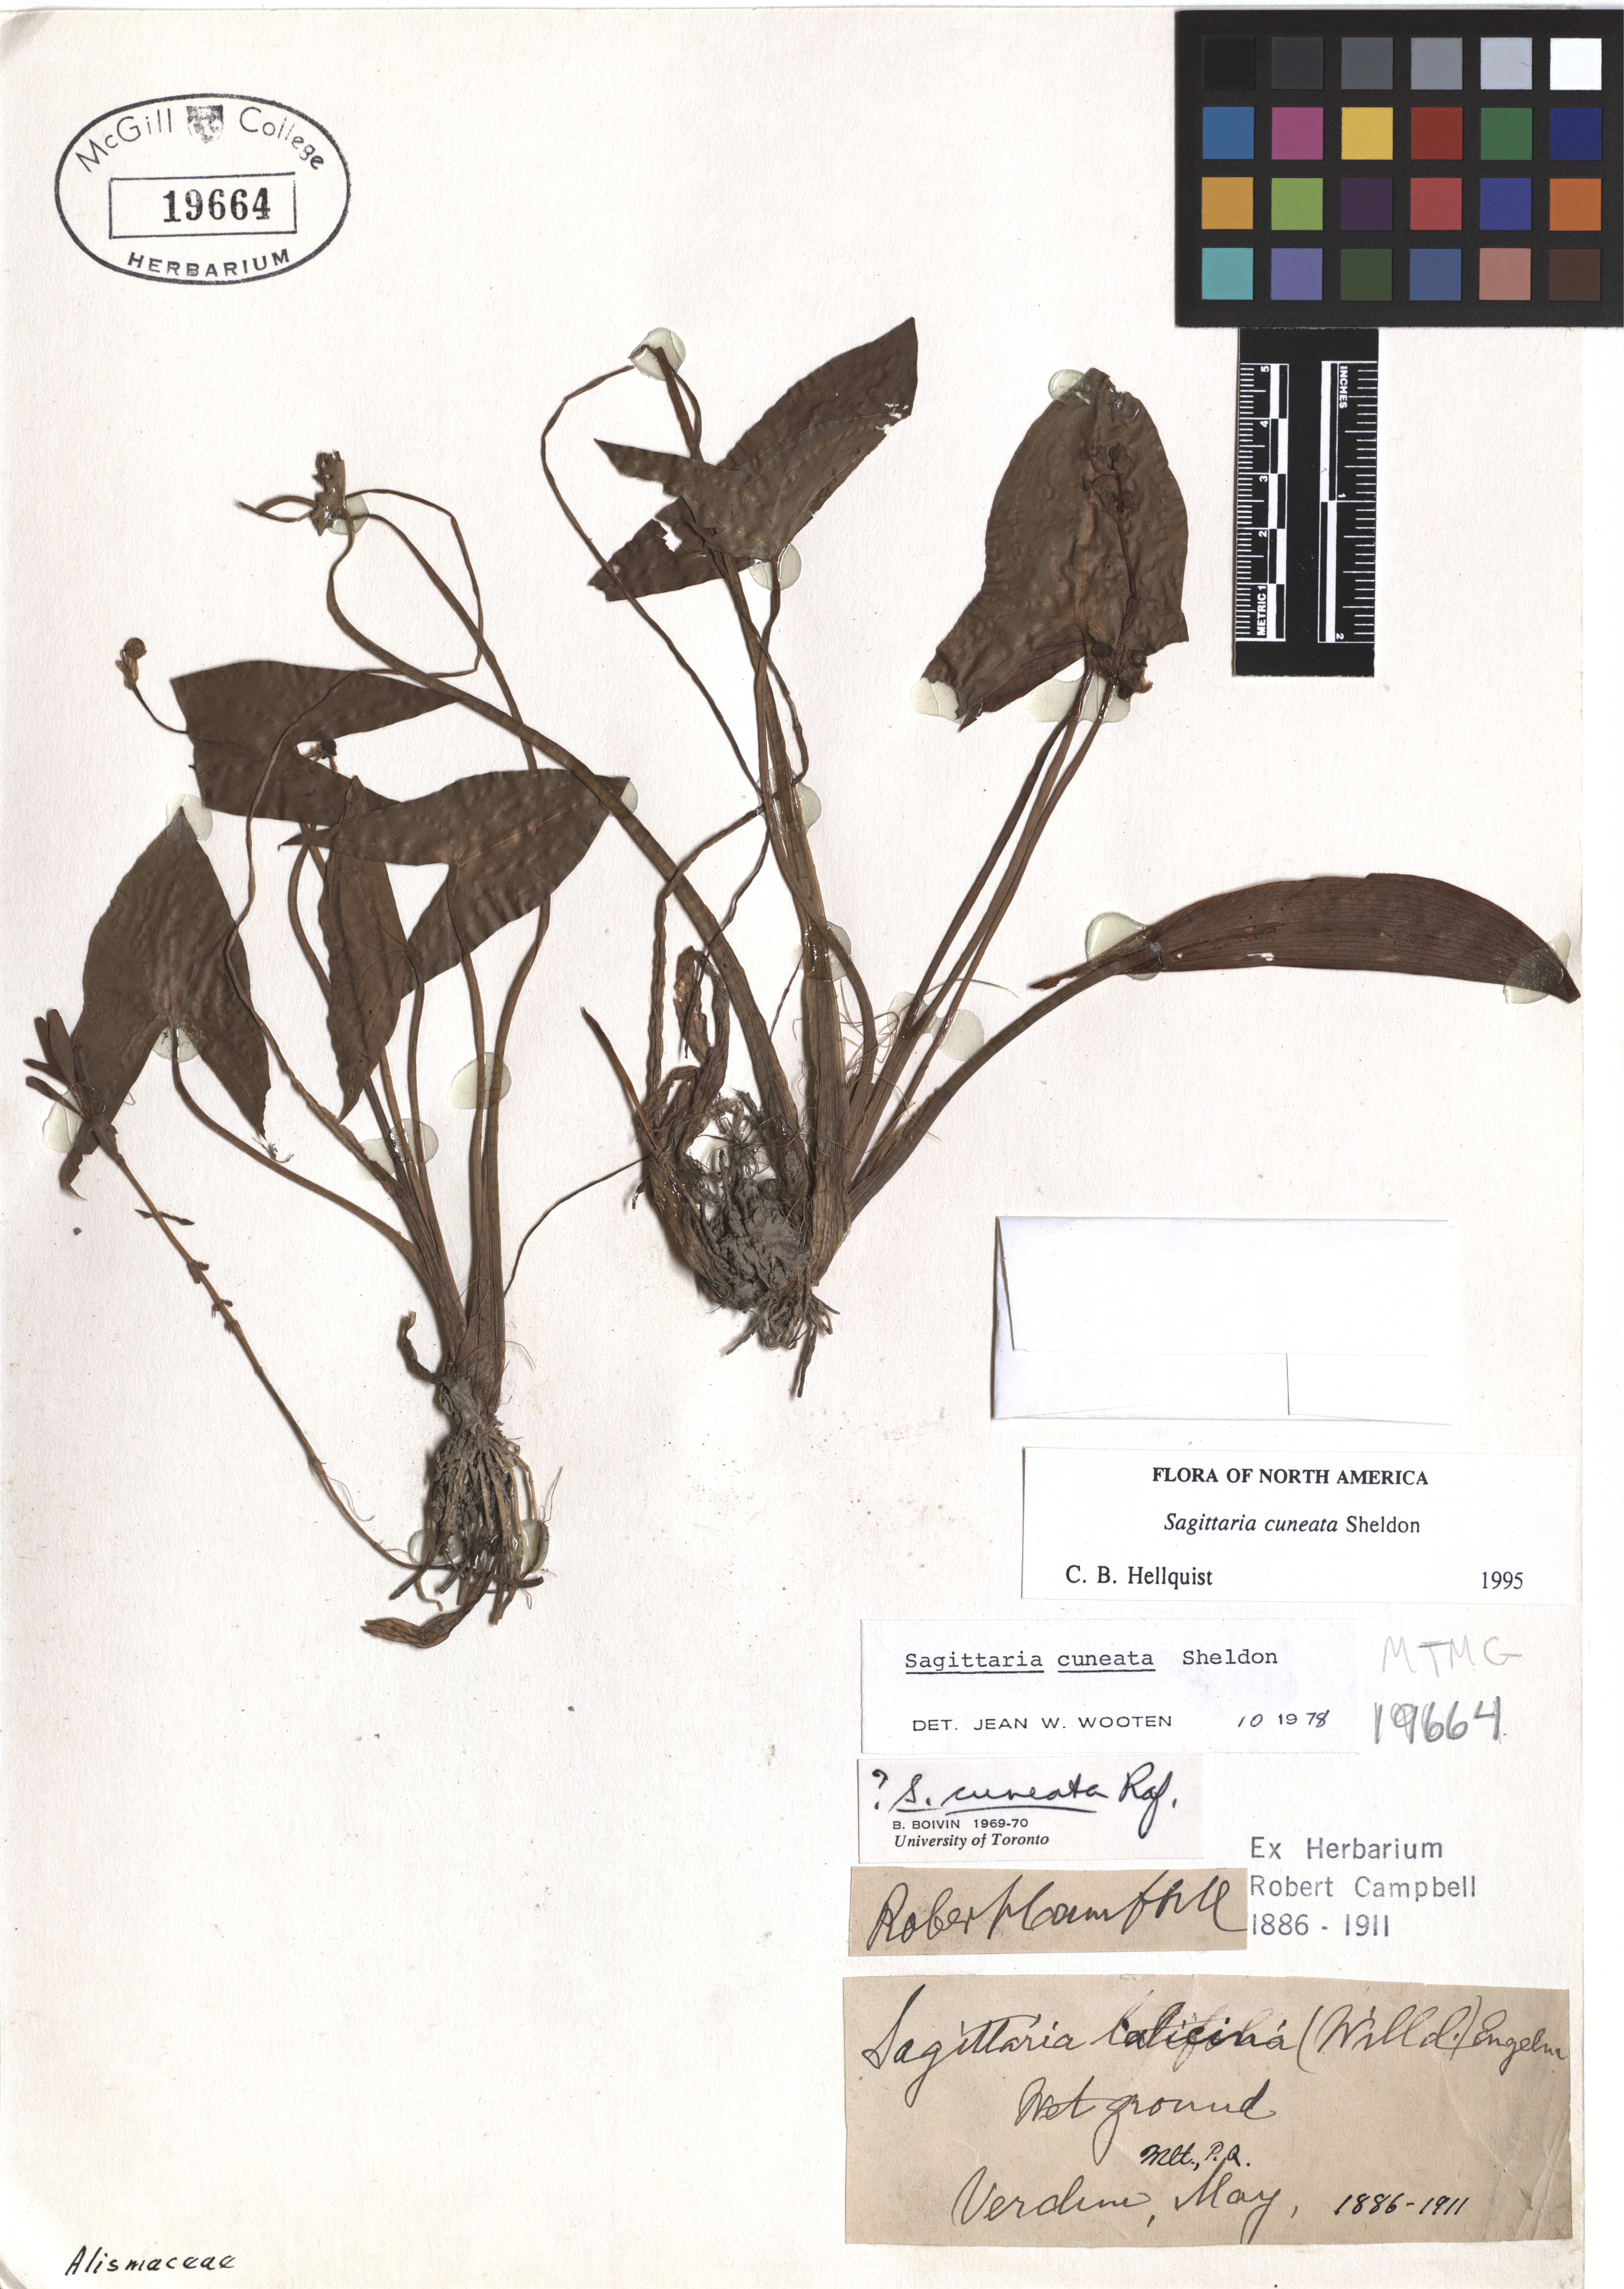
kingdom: Plantae
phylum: Tracheophyta
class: Liliopsida
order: Alismatales
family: Alismataceae
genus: Sagittaria
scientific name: Sagittaria cuneata
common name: Northern arrowhead
